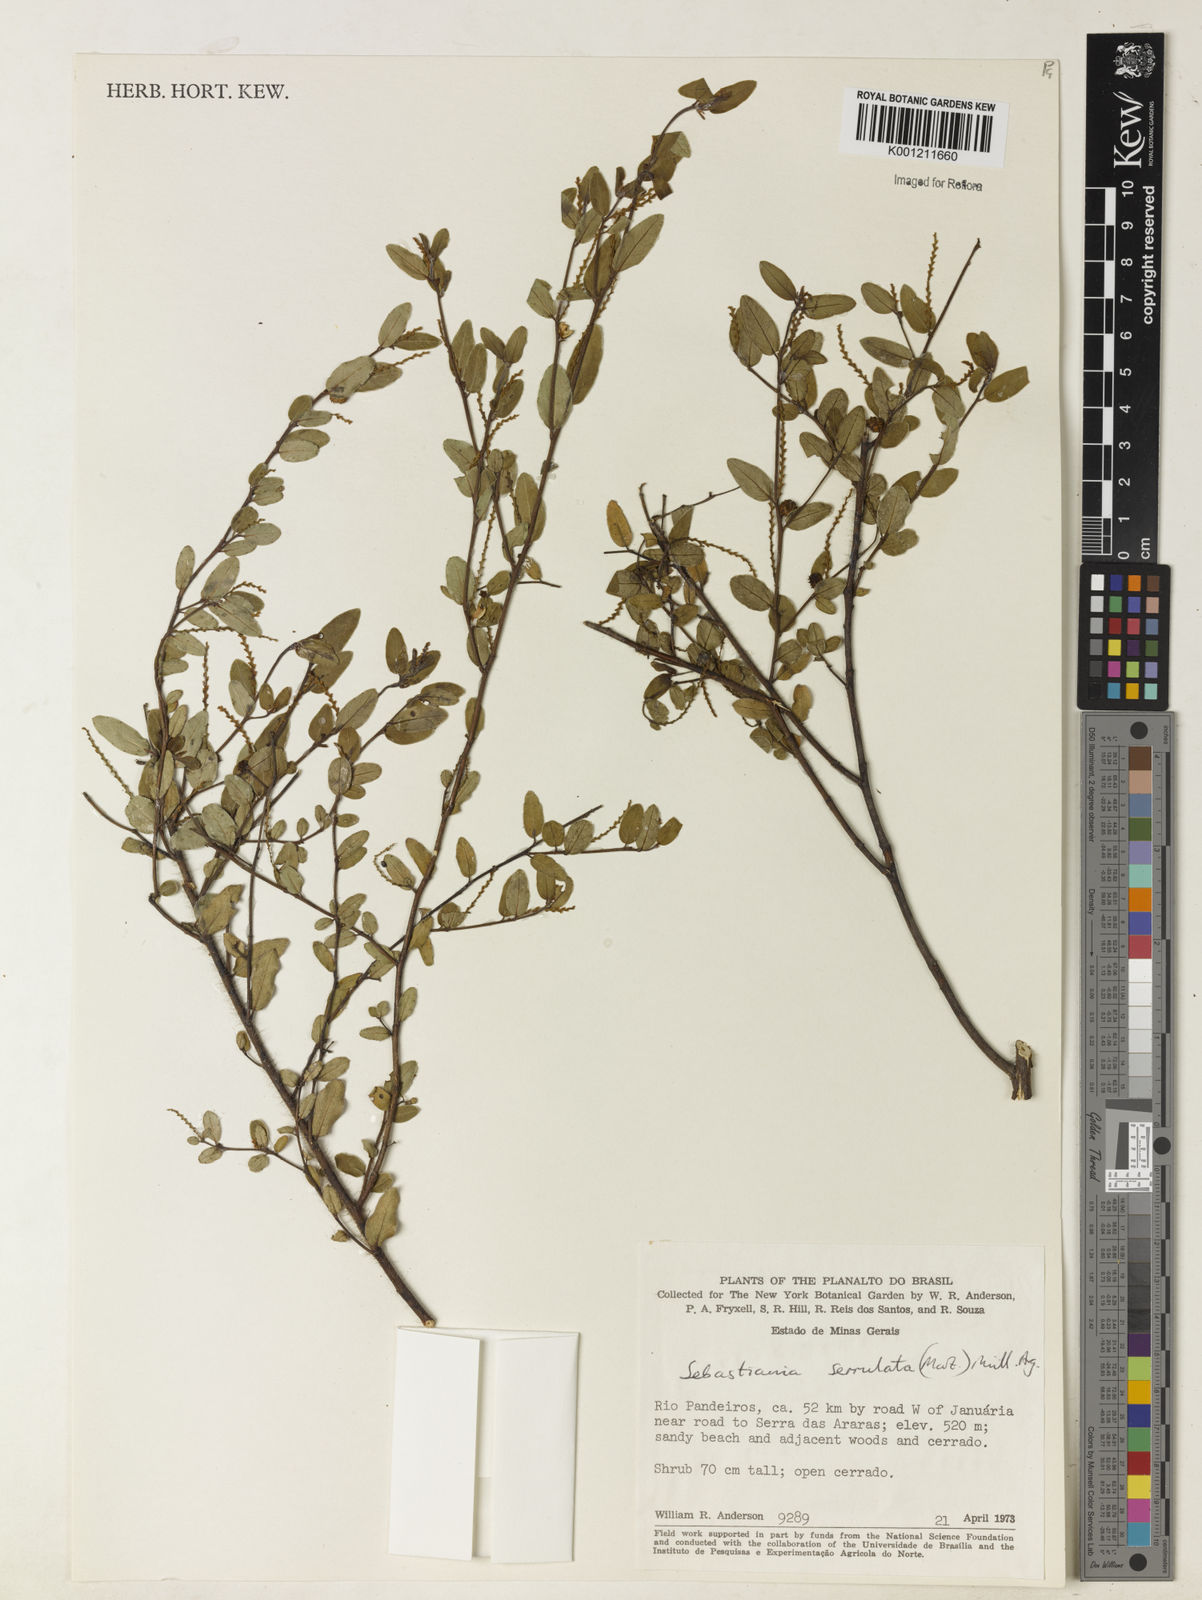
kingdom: Plantae
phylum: Tracheophyta
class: Magnoliopsida
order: Malpighiales
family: Euphorbiaceae
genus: Microstachys
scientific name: Microstachys
